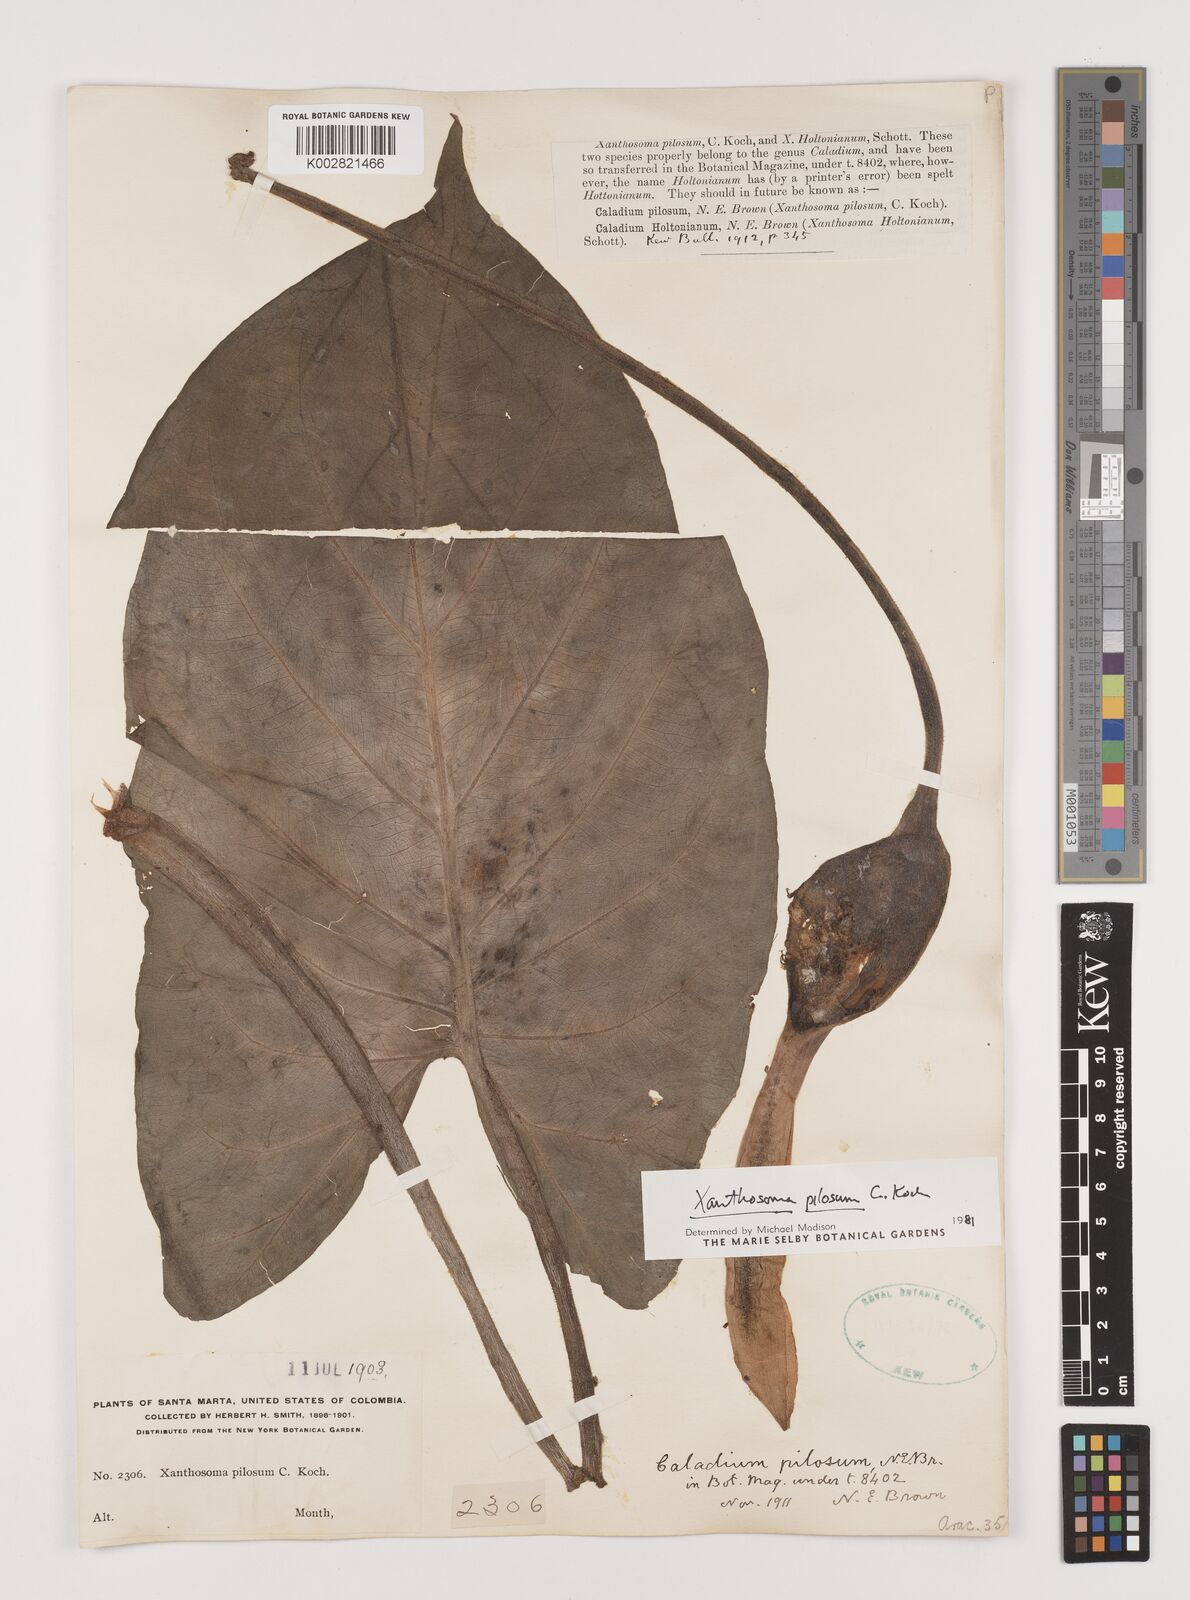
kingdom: Plantae
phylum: Tracheophyta
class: Liliopsida
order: Alismatales
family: Araceae
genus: Xanthosoma
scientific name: Xanthosoma mexicanum
